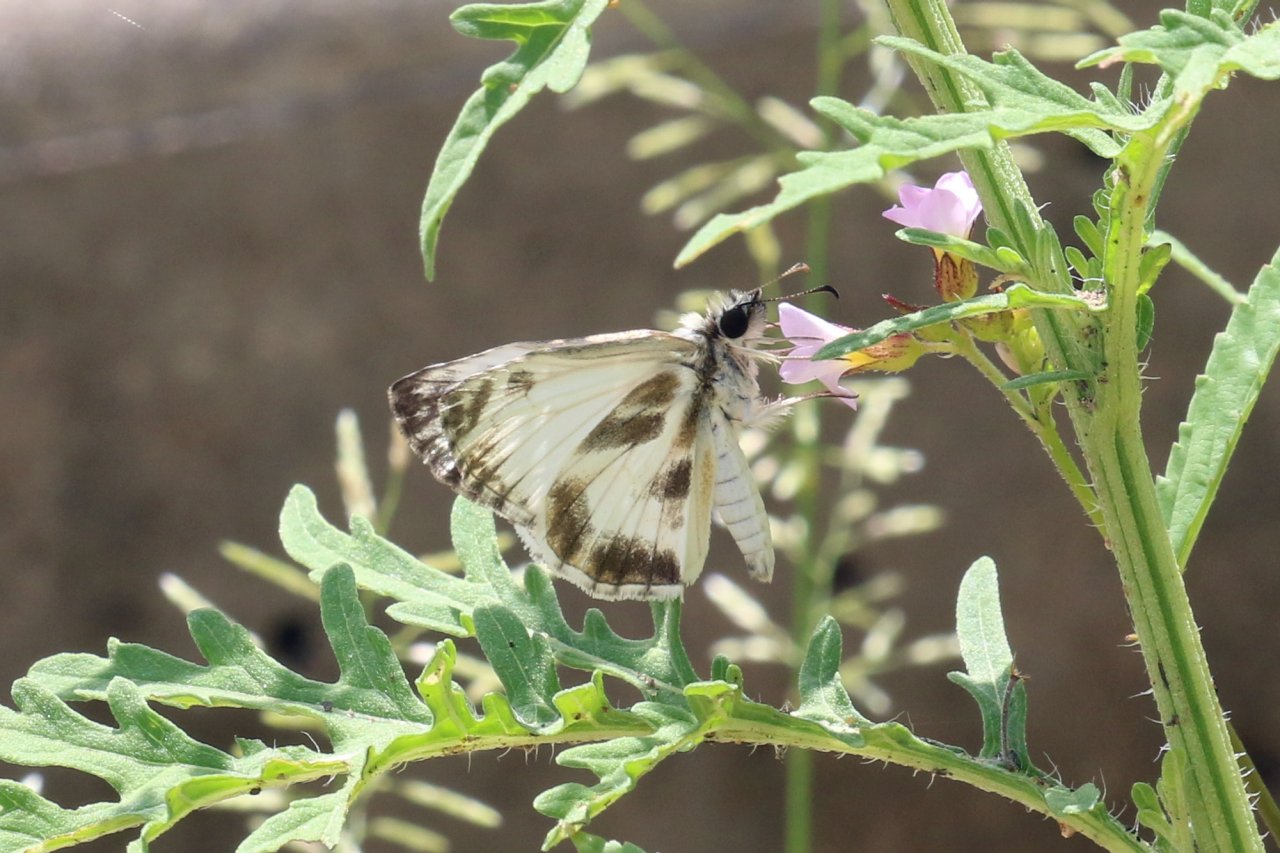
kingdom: Animalia
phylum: Arthropoda
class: Insecta
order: Lepidoptera
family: Hesperiidae
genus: Heliopetes
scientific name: Heliopetes macaira
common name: Turk's-cap White-Skipper
